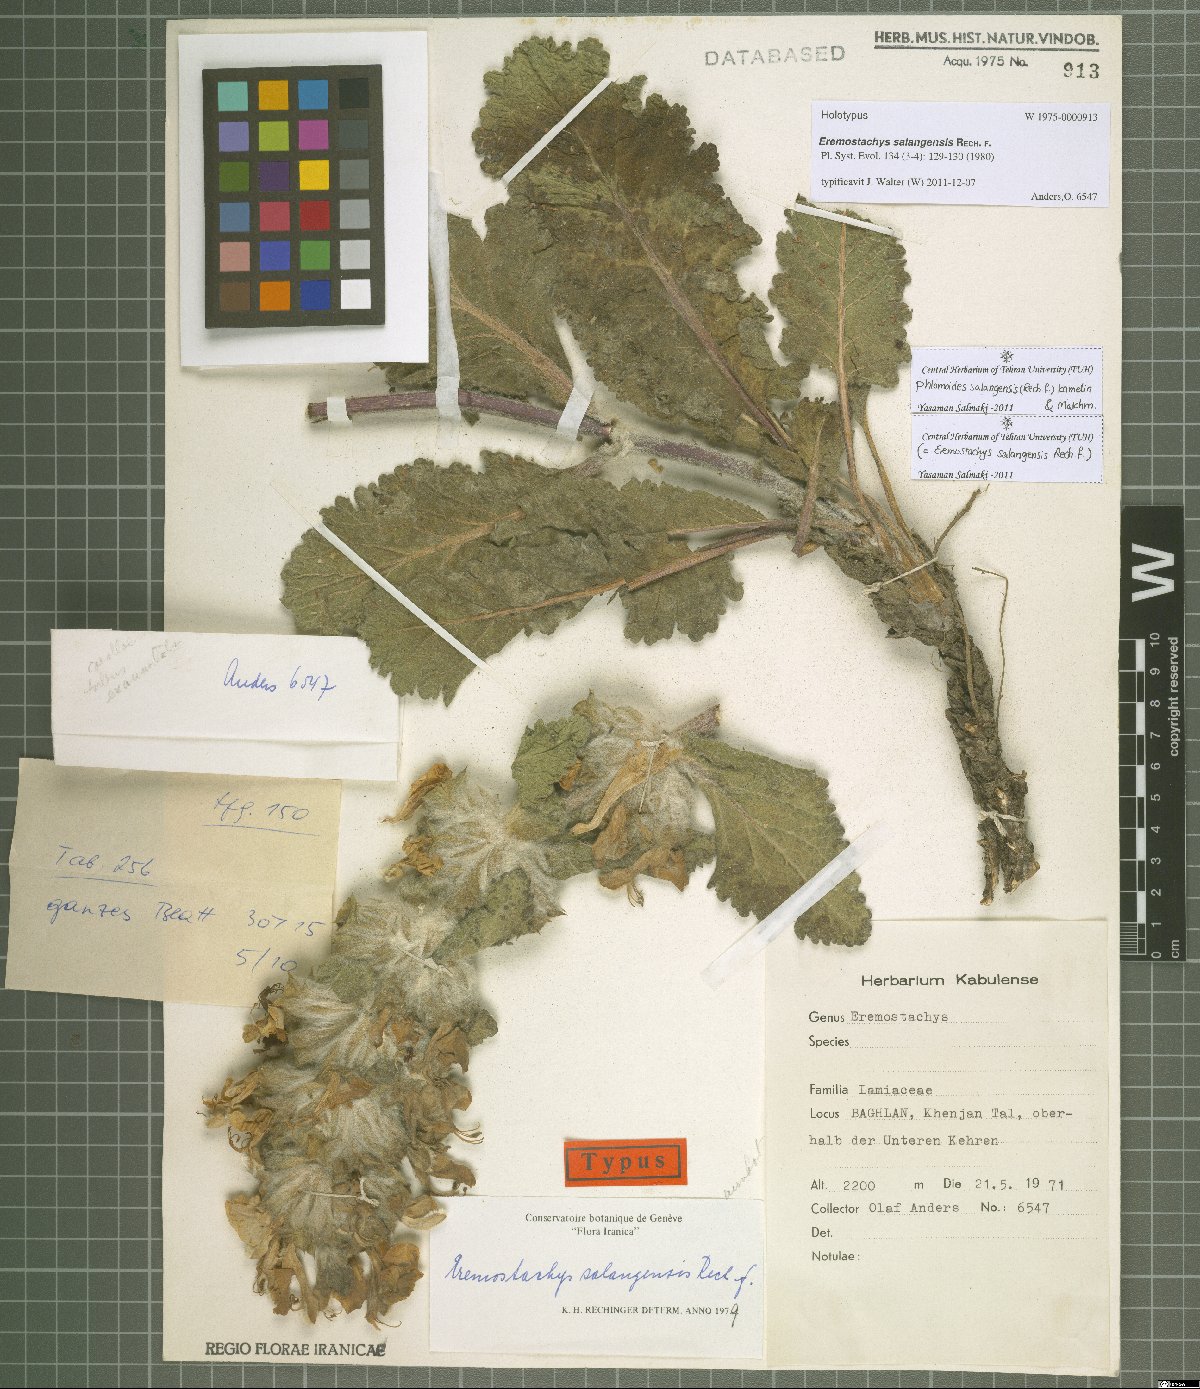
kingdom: Plantae
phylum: Tracheophyta
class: Magnoliopsida
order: Lamiales
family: Lamiaceae
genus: Phlomoides
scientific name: Phlomoides salangensis
